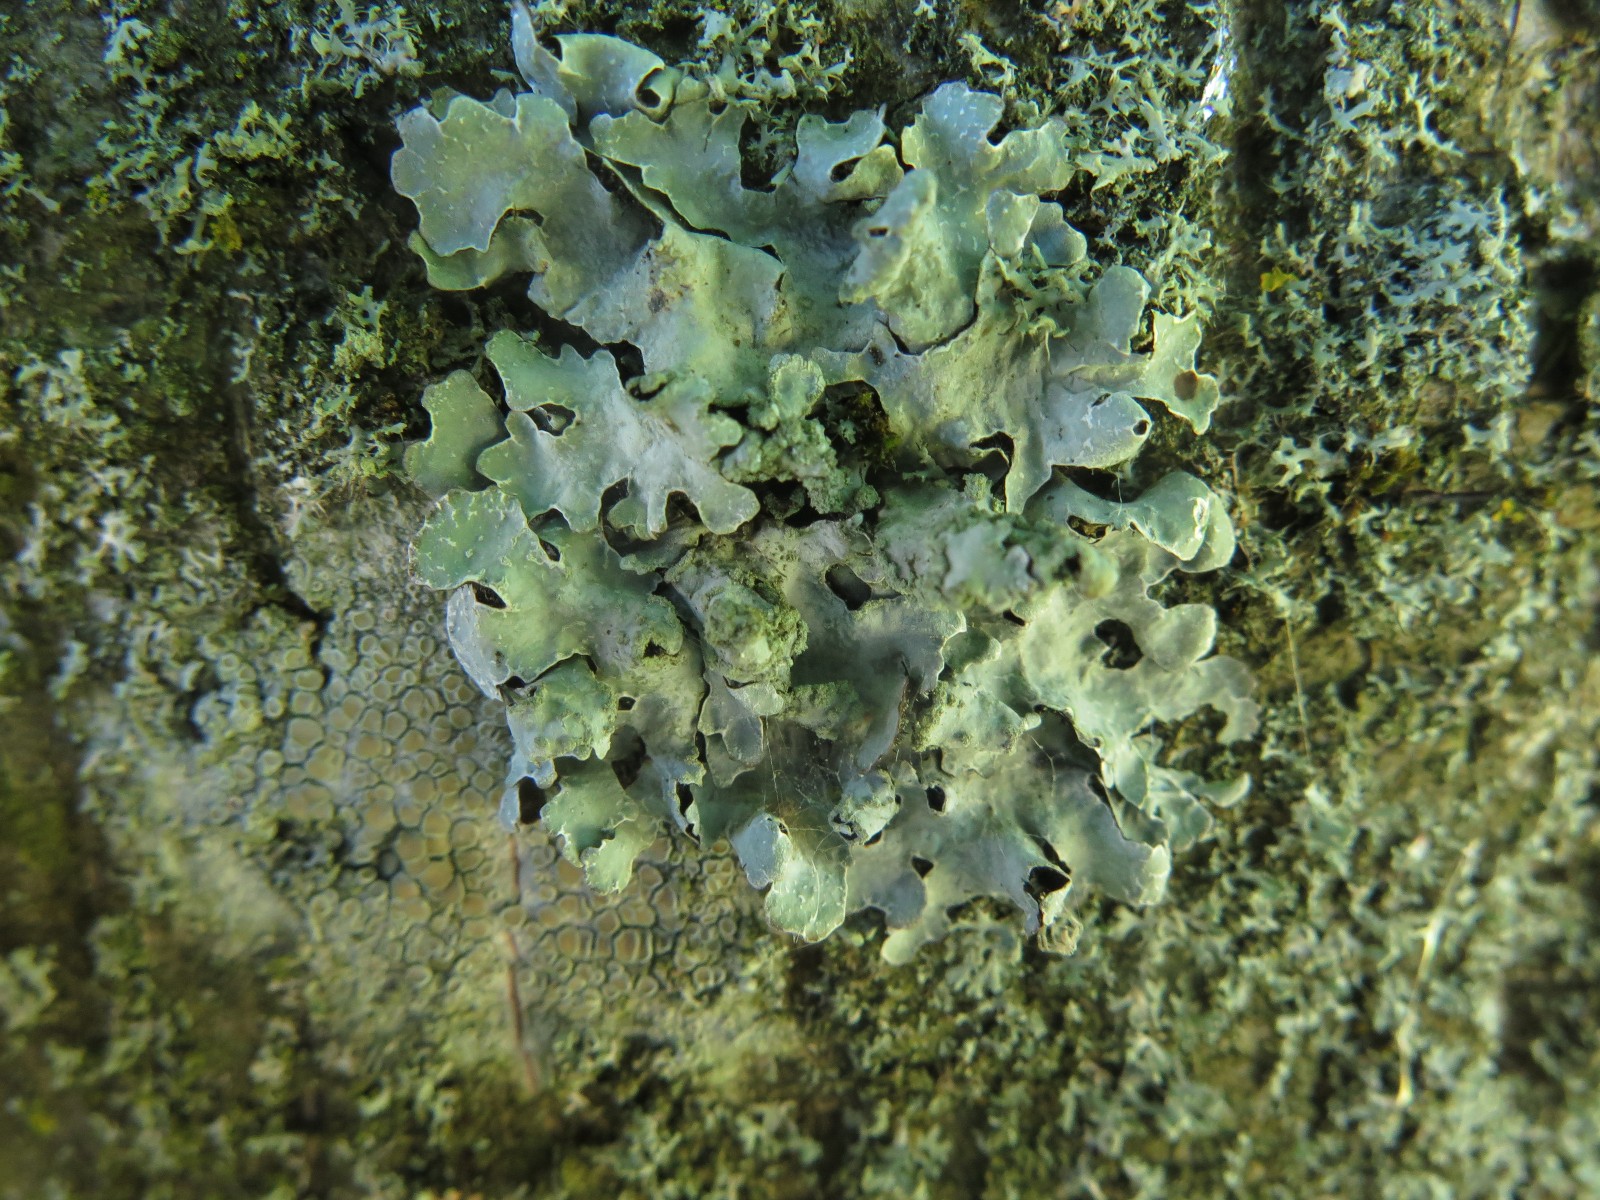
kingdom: Fungi
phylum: Ascomycota
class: Lecanoromycetes
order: Lecanorales
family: Parmeliaceae
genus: Parmelia
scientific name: Parmelia sulcata
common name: rynket skållav
